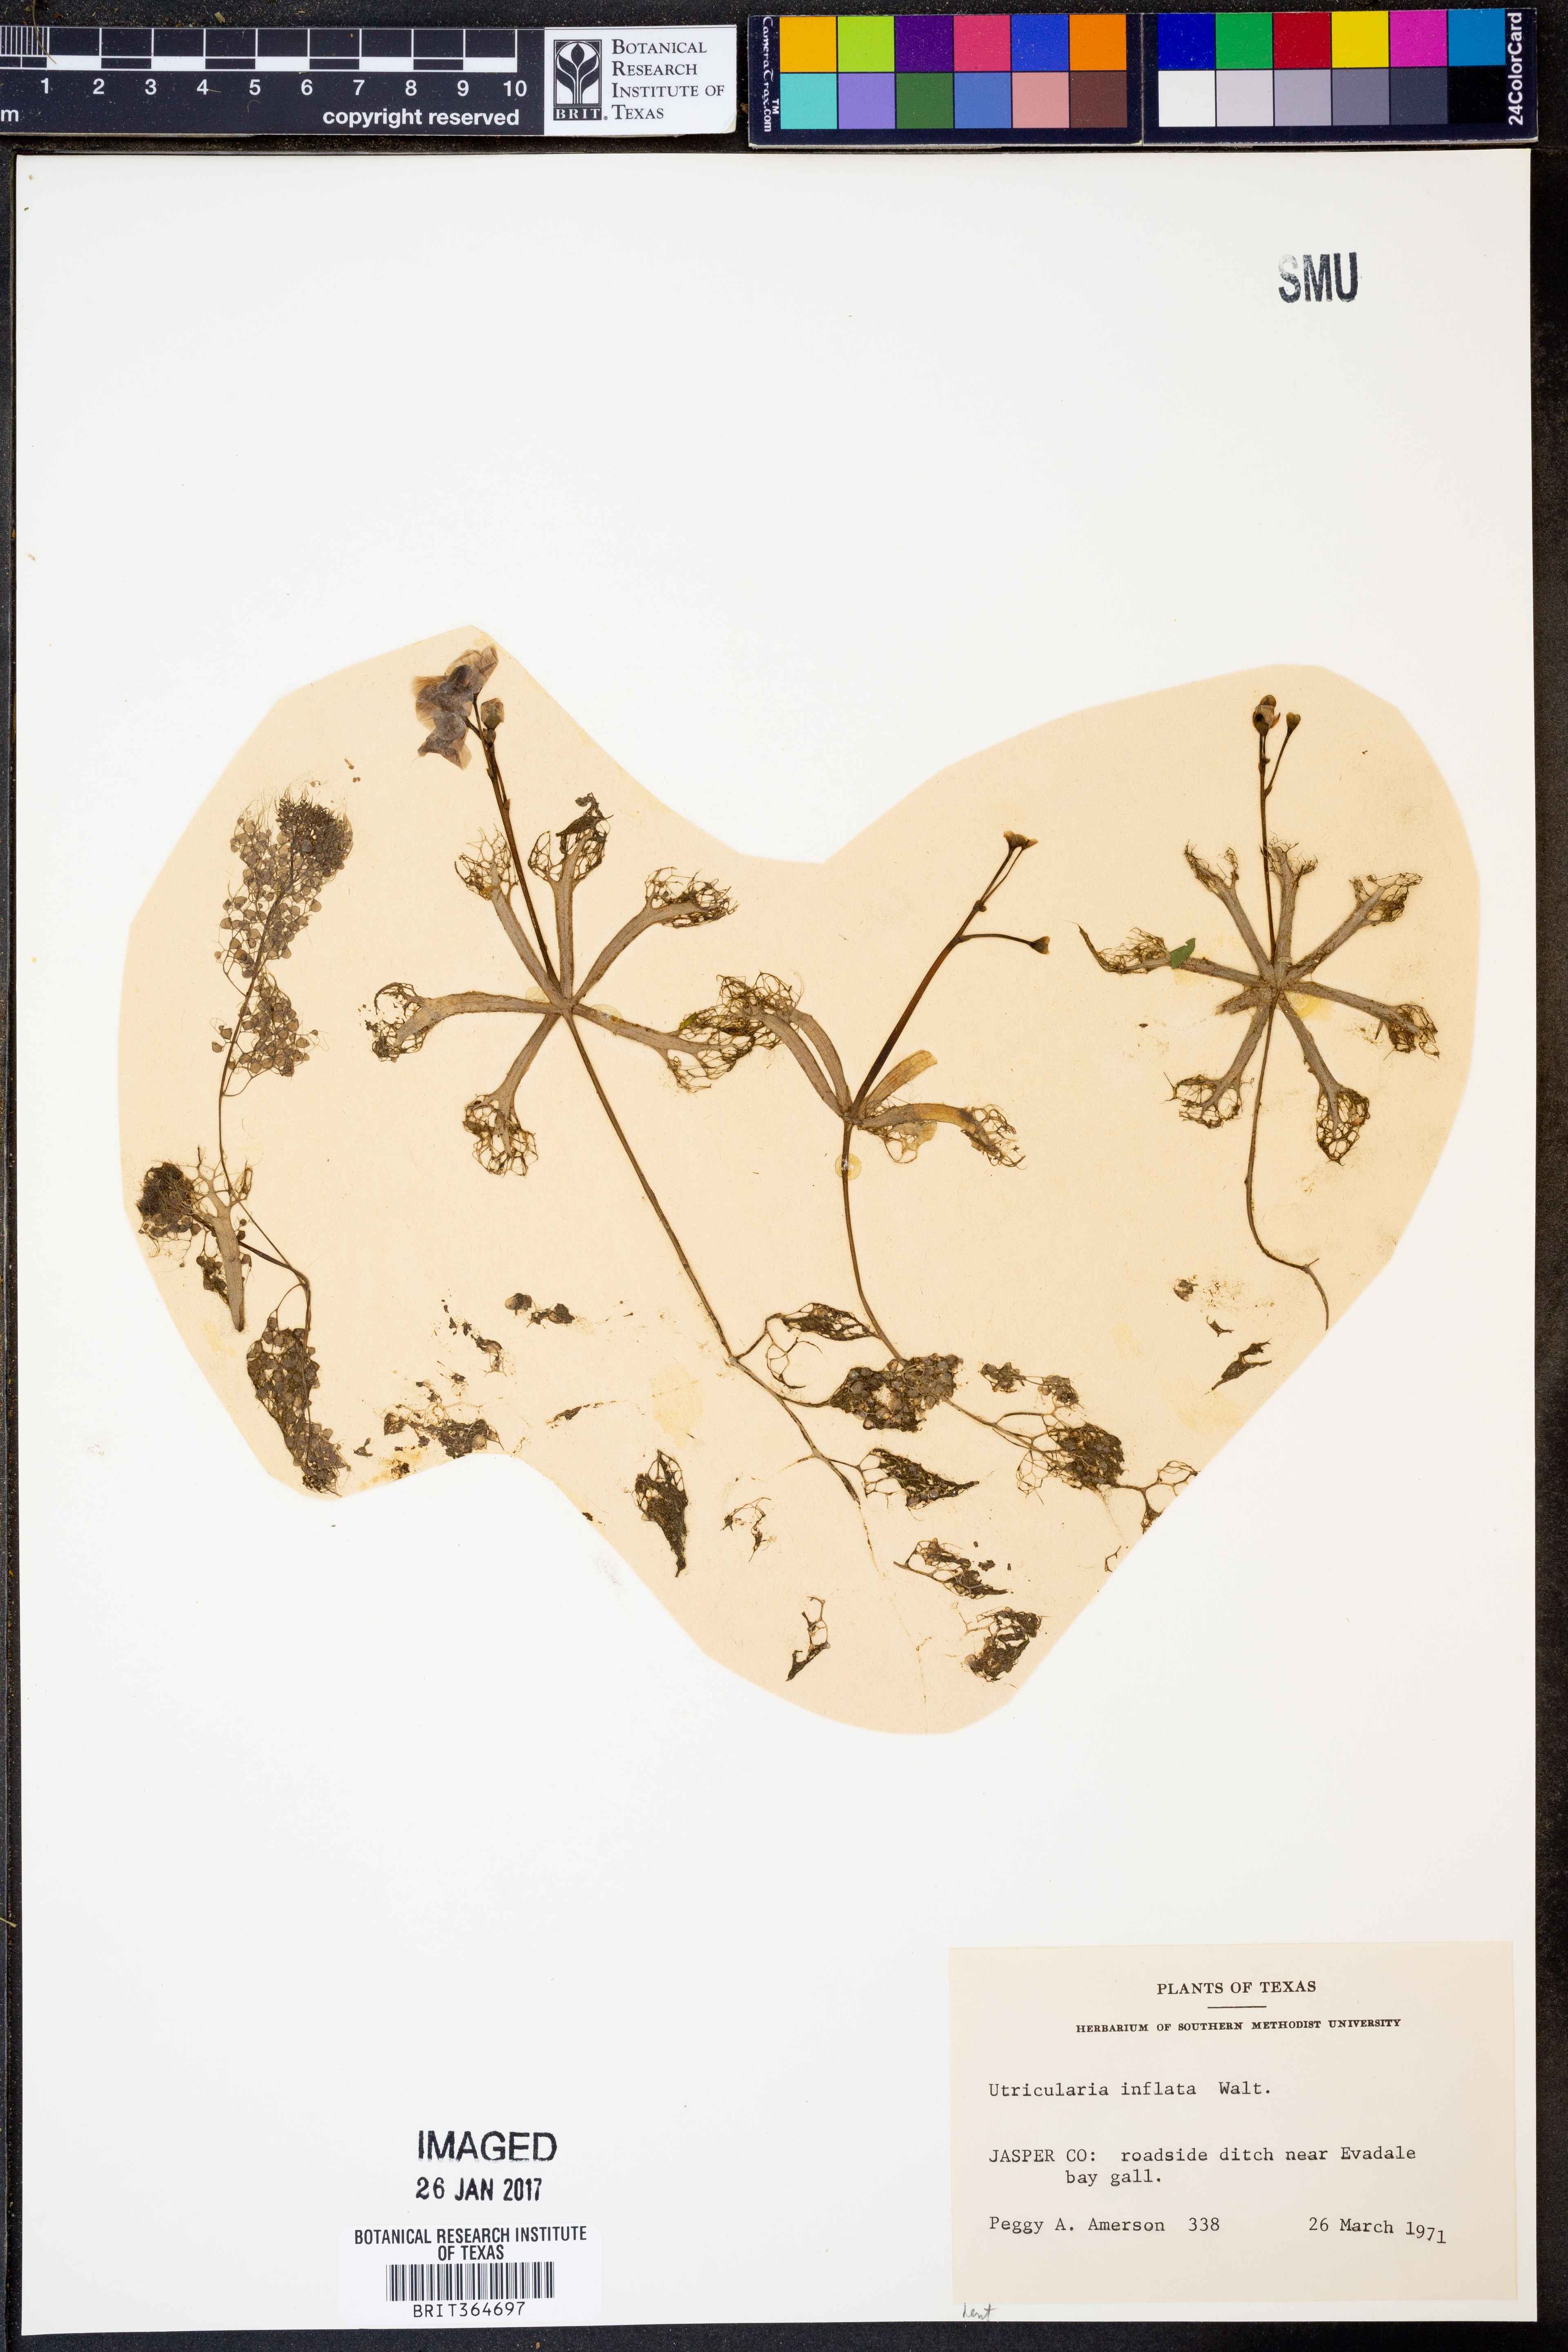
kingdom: Plantae
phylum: Tracheophyta
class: Magnoliopsida
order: Lamiales
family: Lentibulariaceae
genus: Utricularia
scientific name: Utricularia inflata
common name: Floating bladderwort
